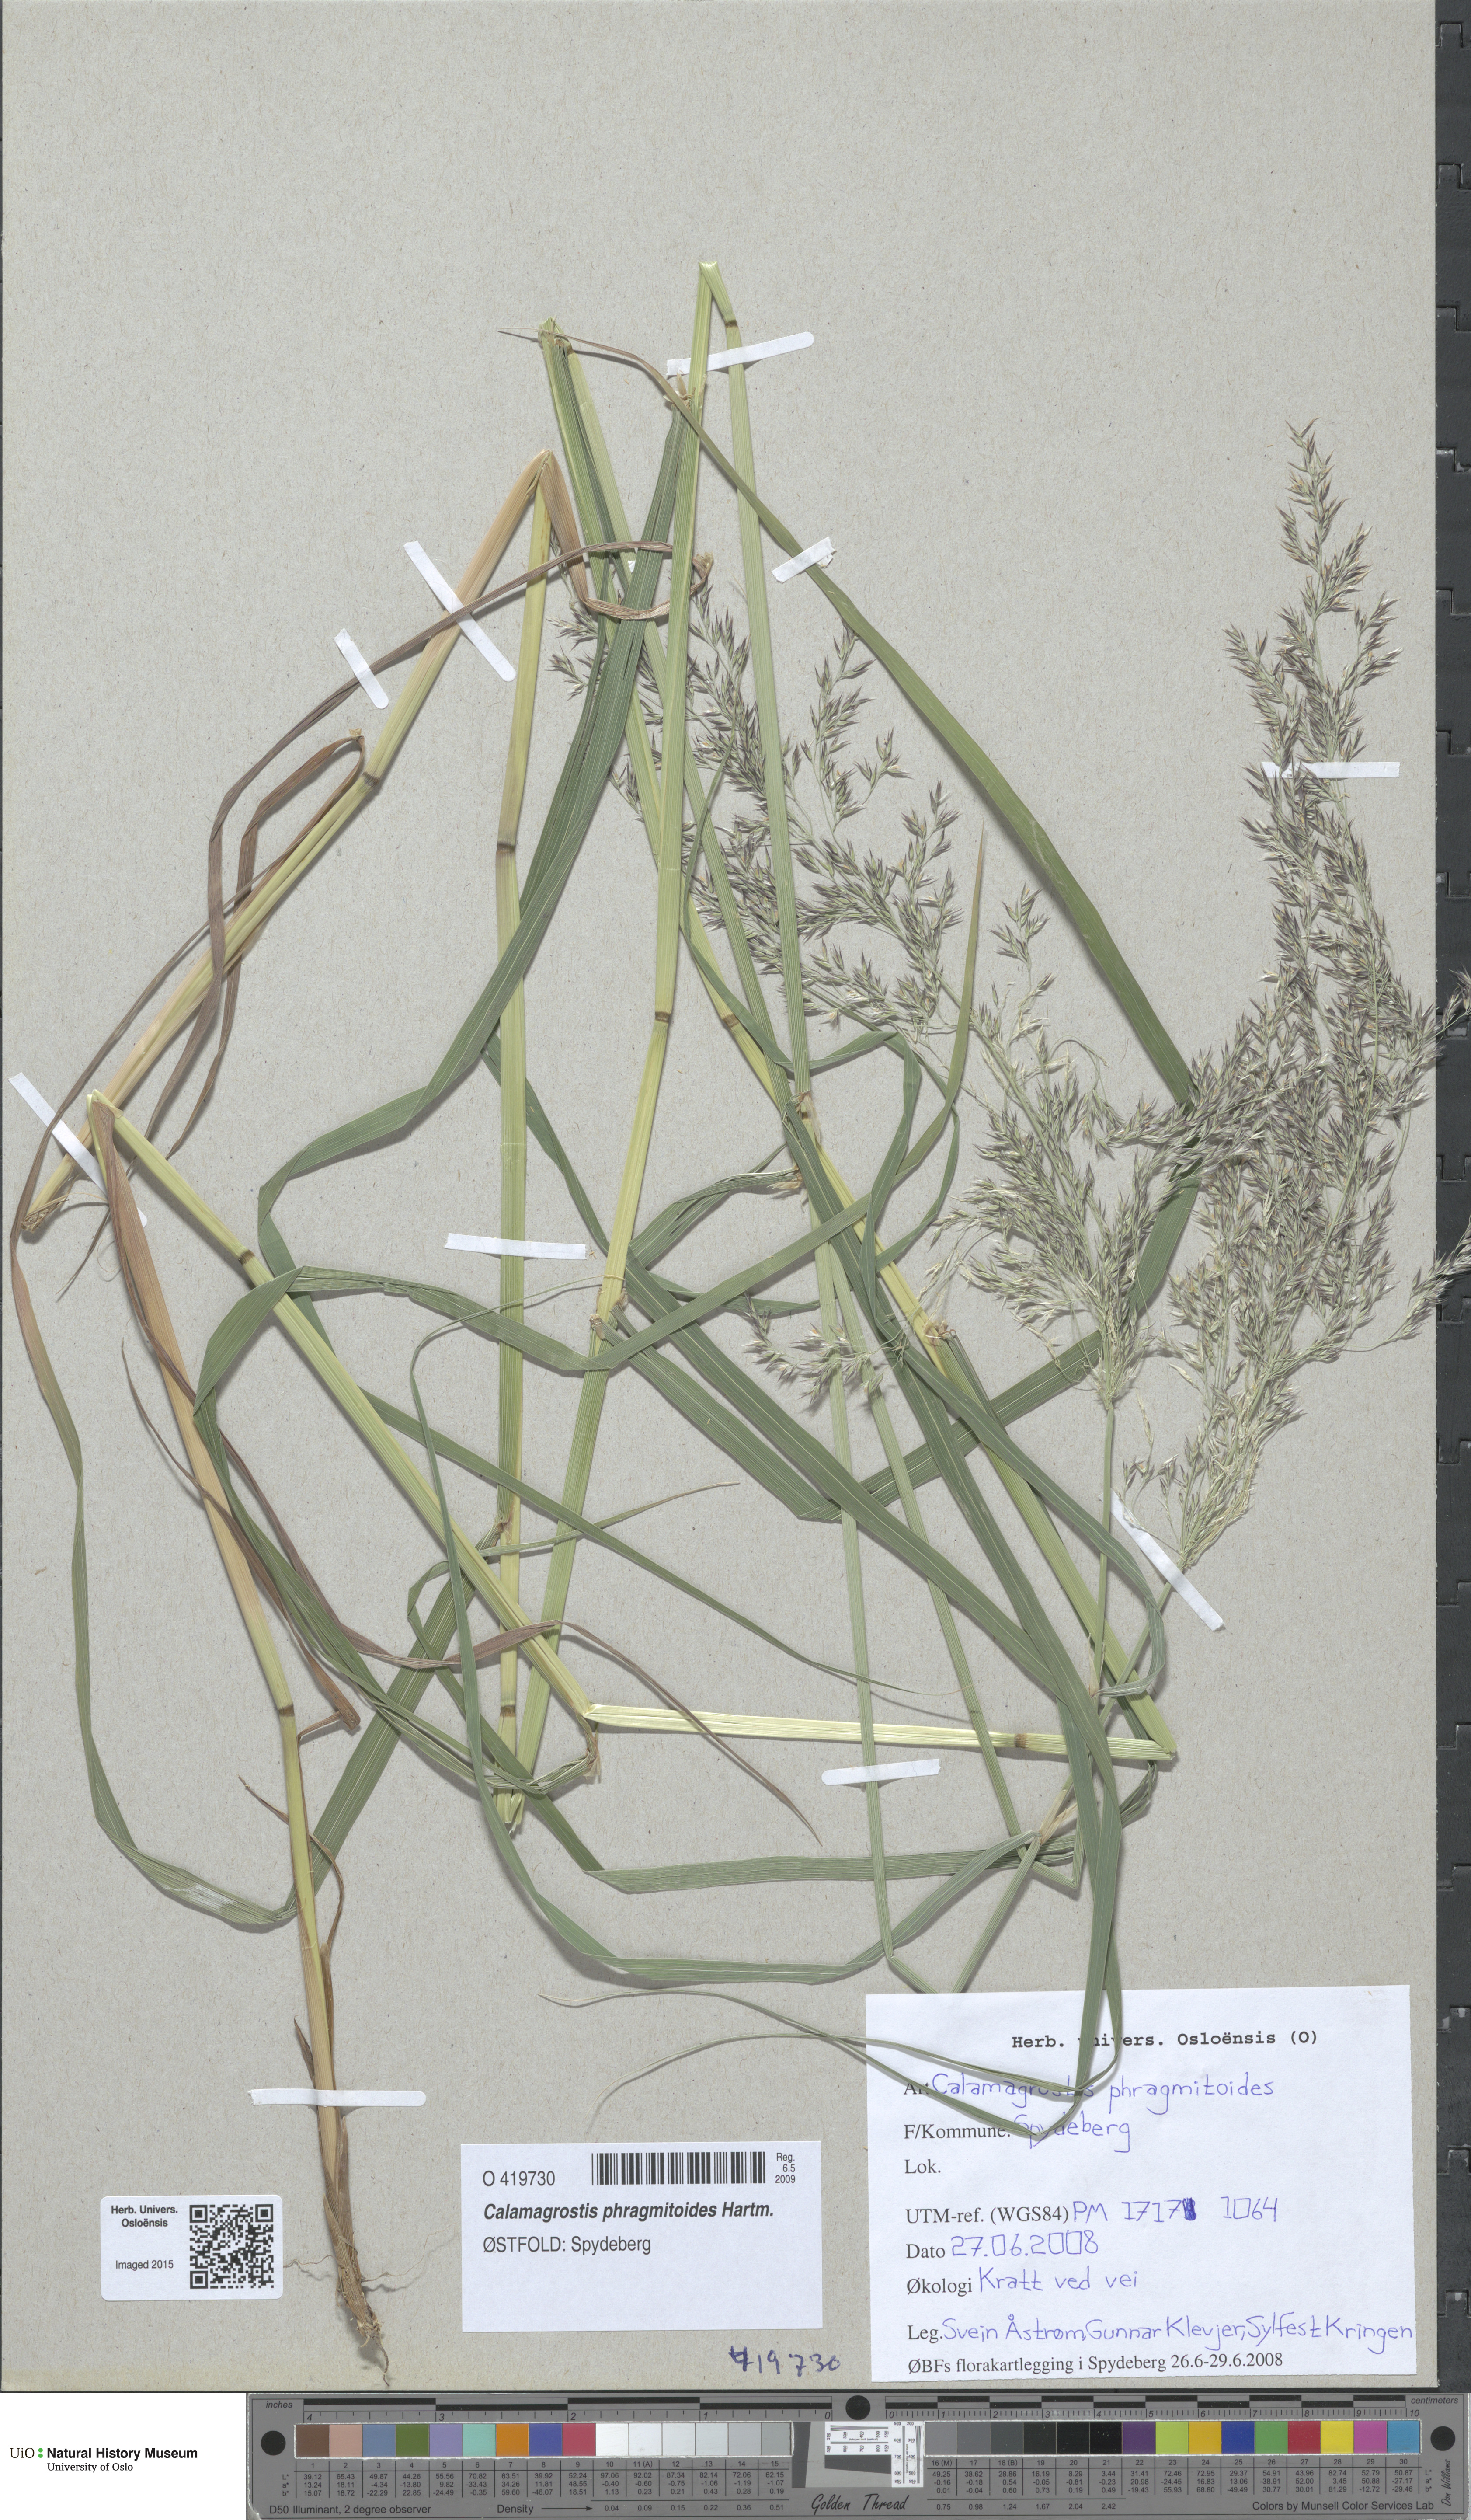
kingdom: Plantae
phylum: Tracheophyta
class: Liliopsida
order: Poales
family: Poaceae
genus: Calamagrostis
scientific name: Calamagrostis purpurea
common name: Scandinavian small-reed
